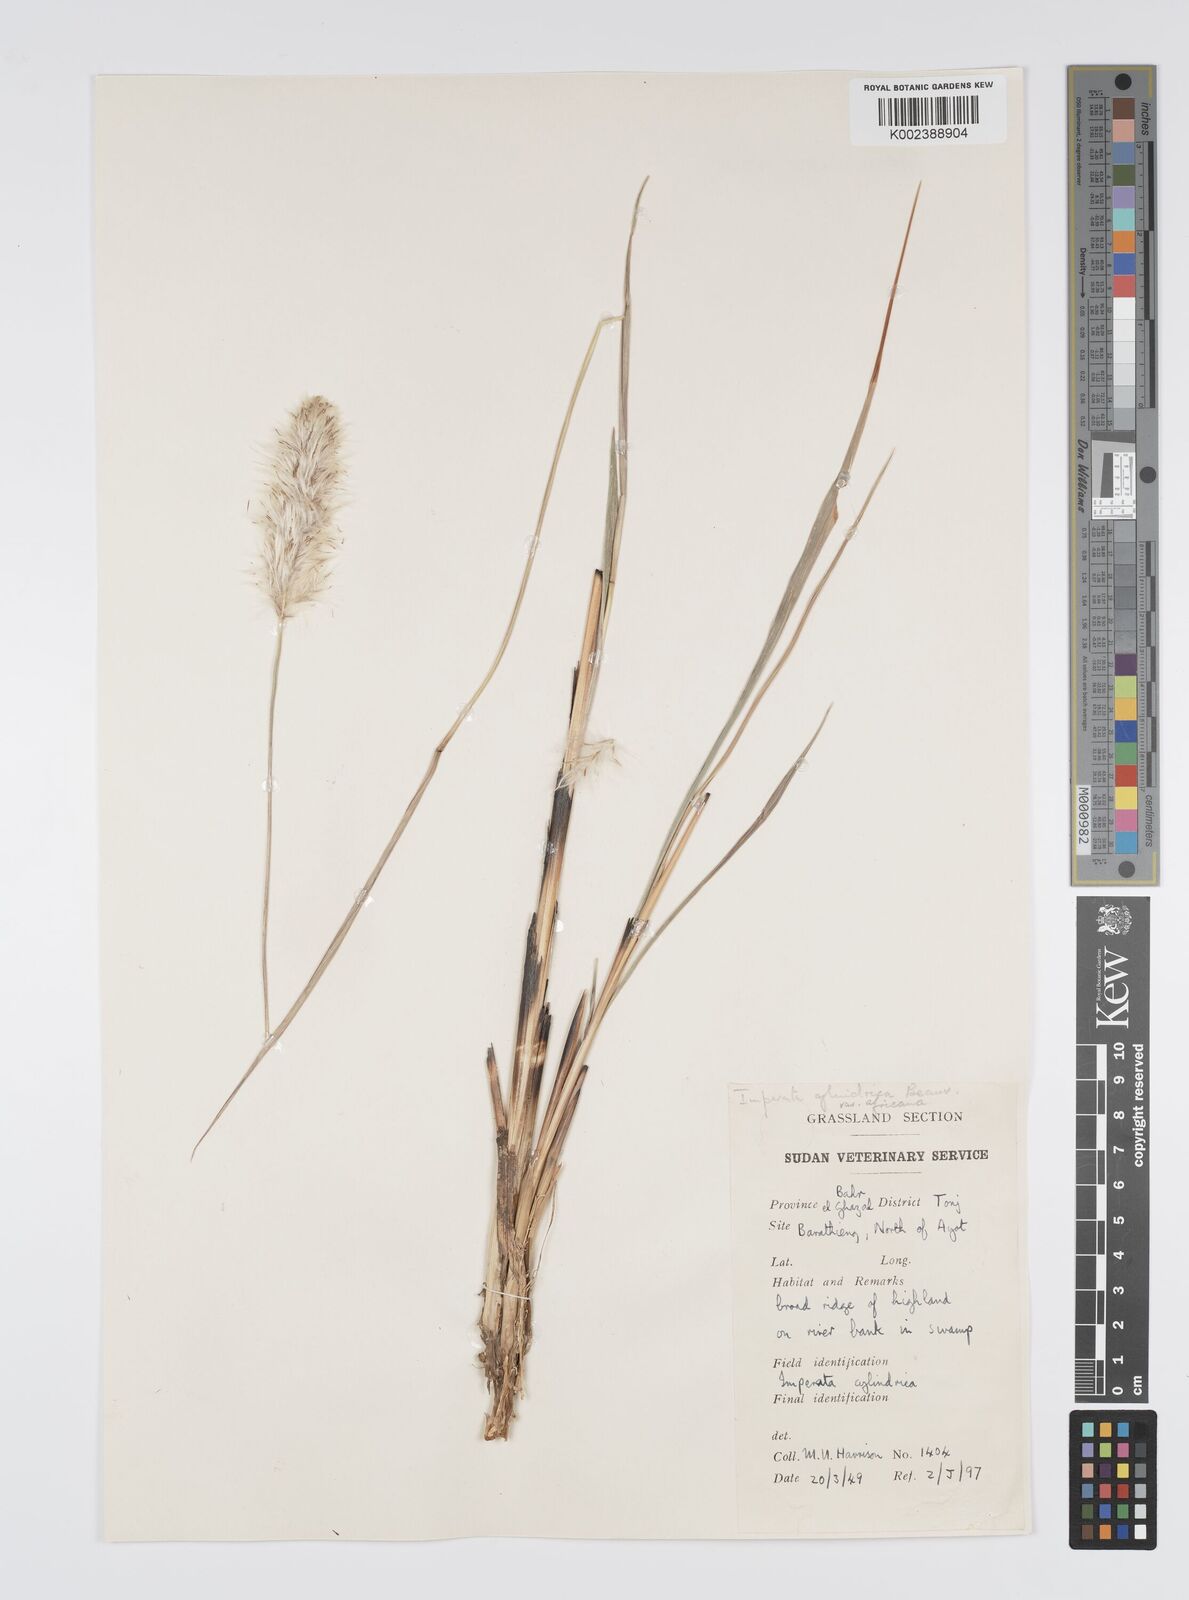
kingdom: Plantae
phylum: Tracheophyta
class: Liliopsida
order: Poales
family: Poaceae
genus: Imperata
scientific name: Imperata cylindrica
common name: Cogongrass
